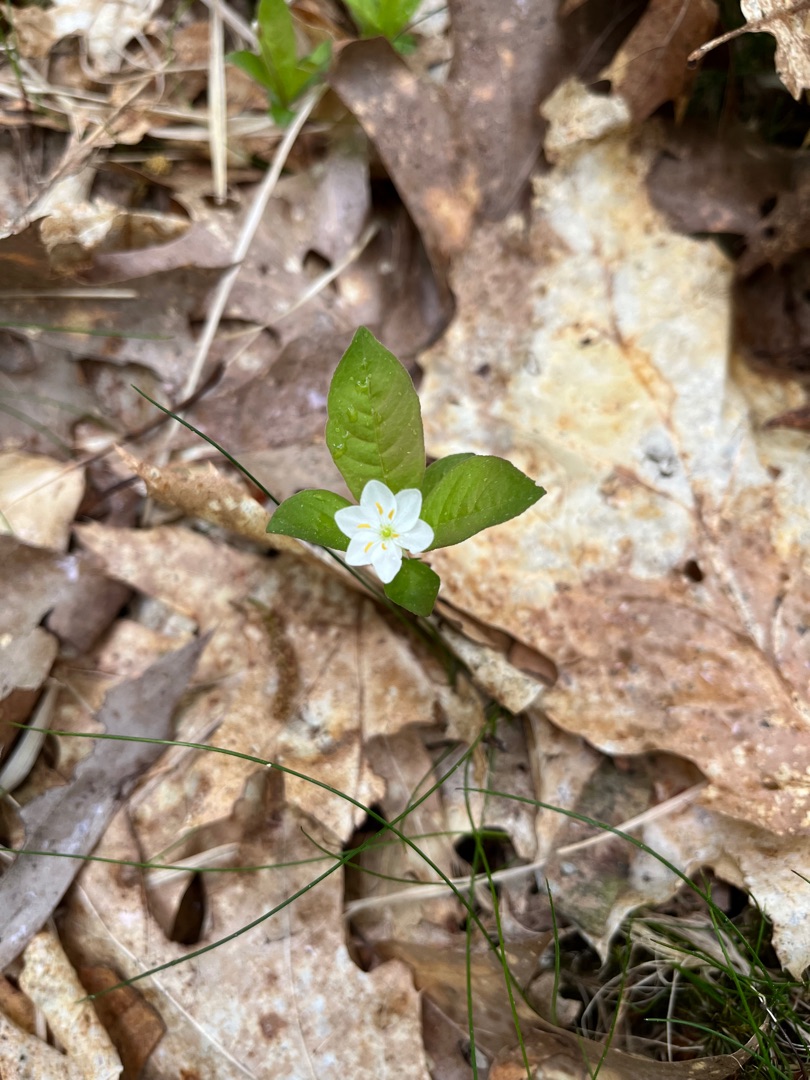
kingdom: Plantae
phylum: Tracheophyta
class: Magnoliopsida
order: Ericales
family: Primulaceae
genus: Lysimachia
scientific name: Lysimachia europaea
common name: Skovstjerne
